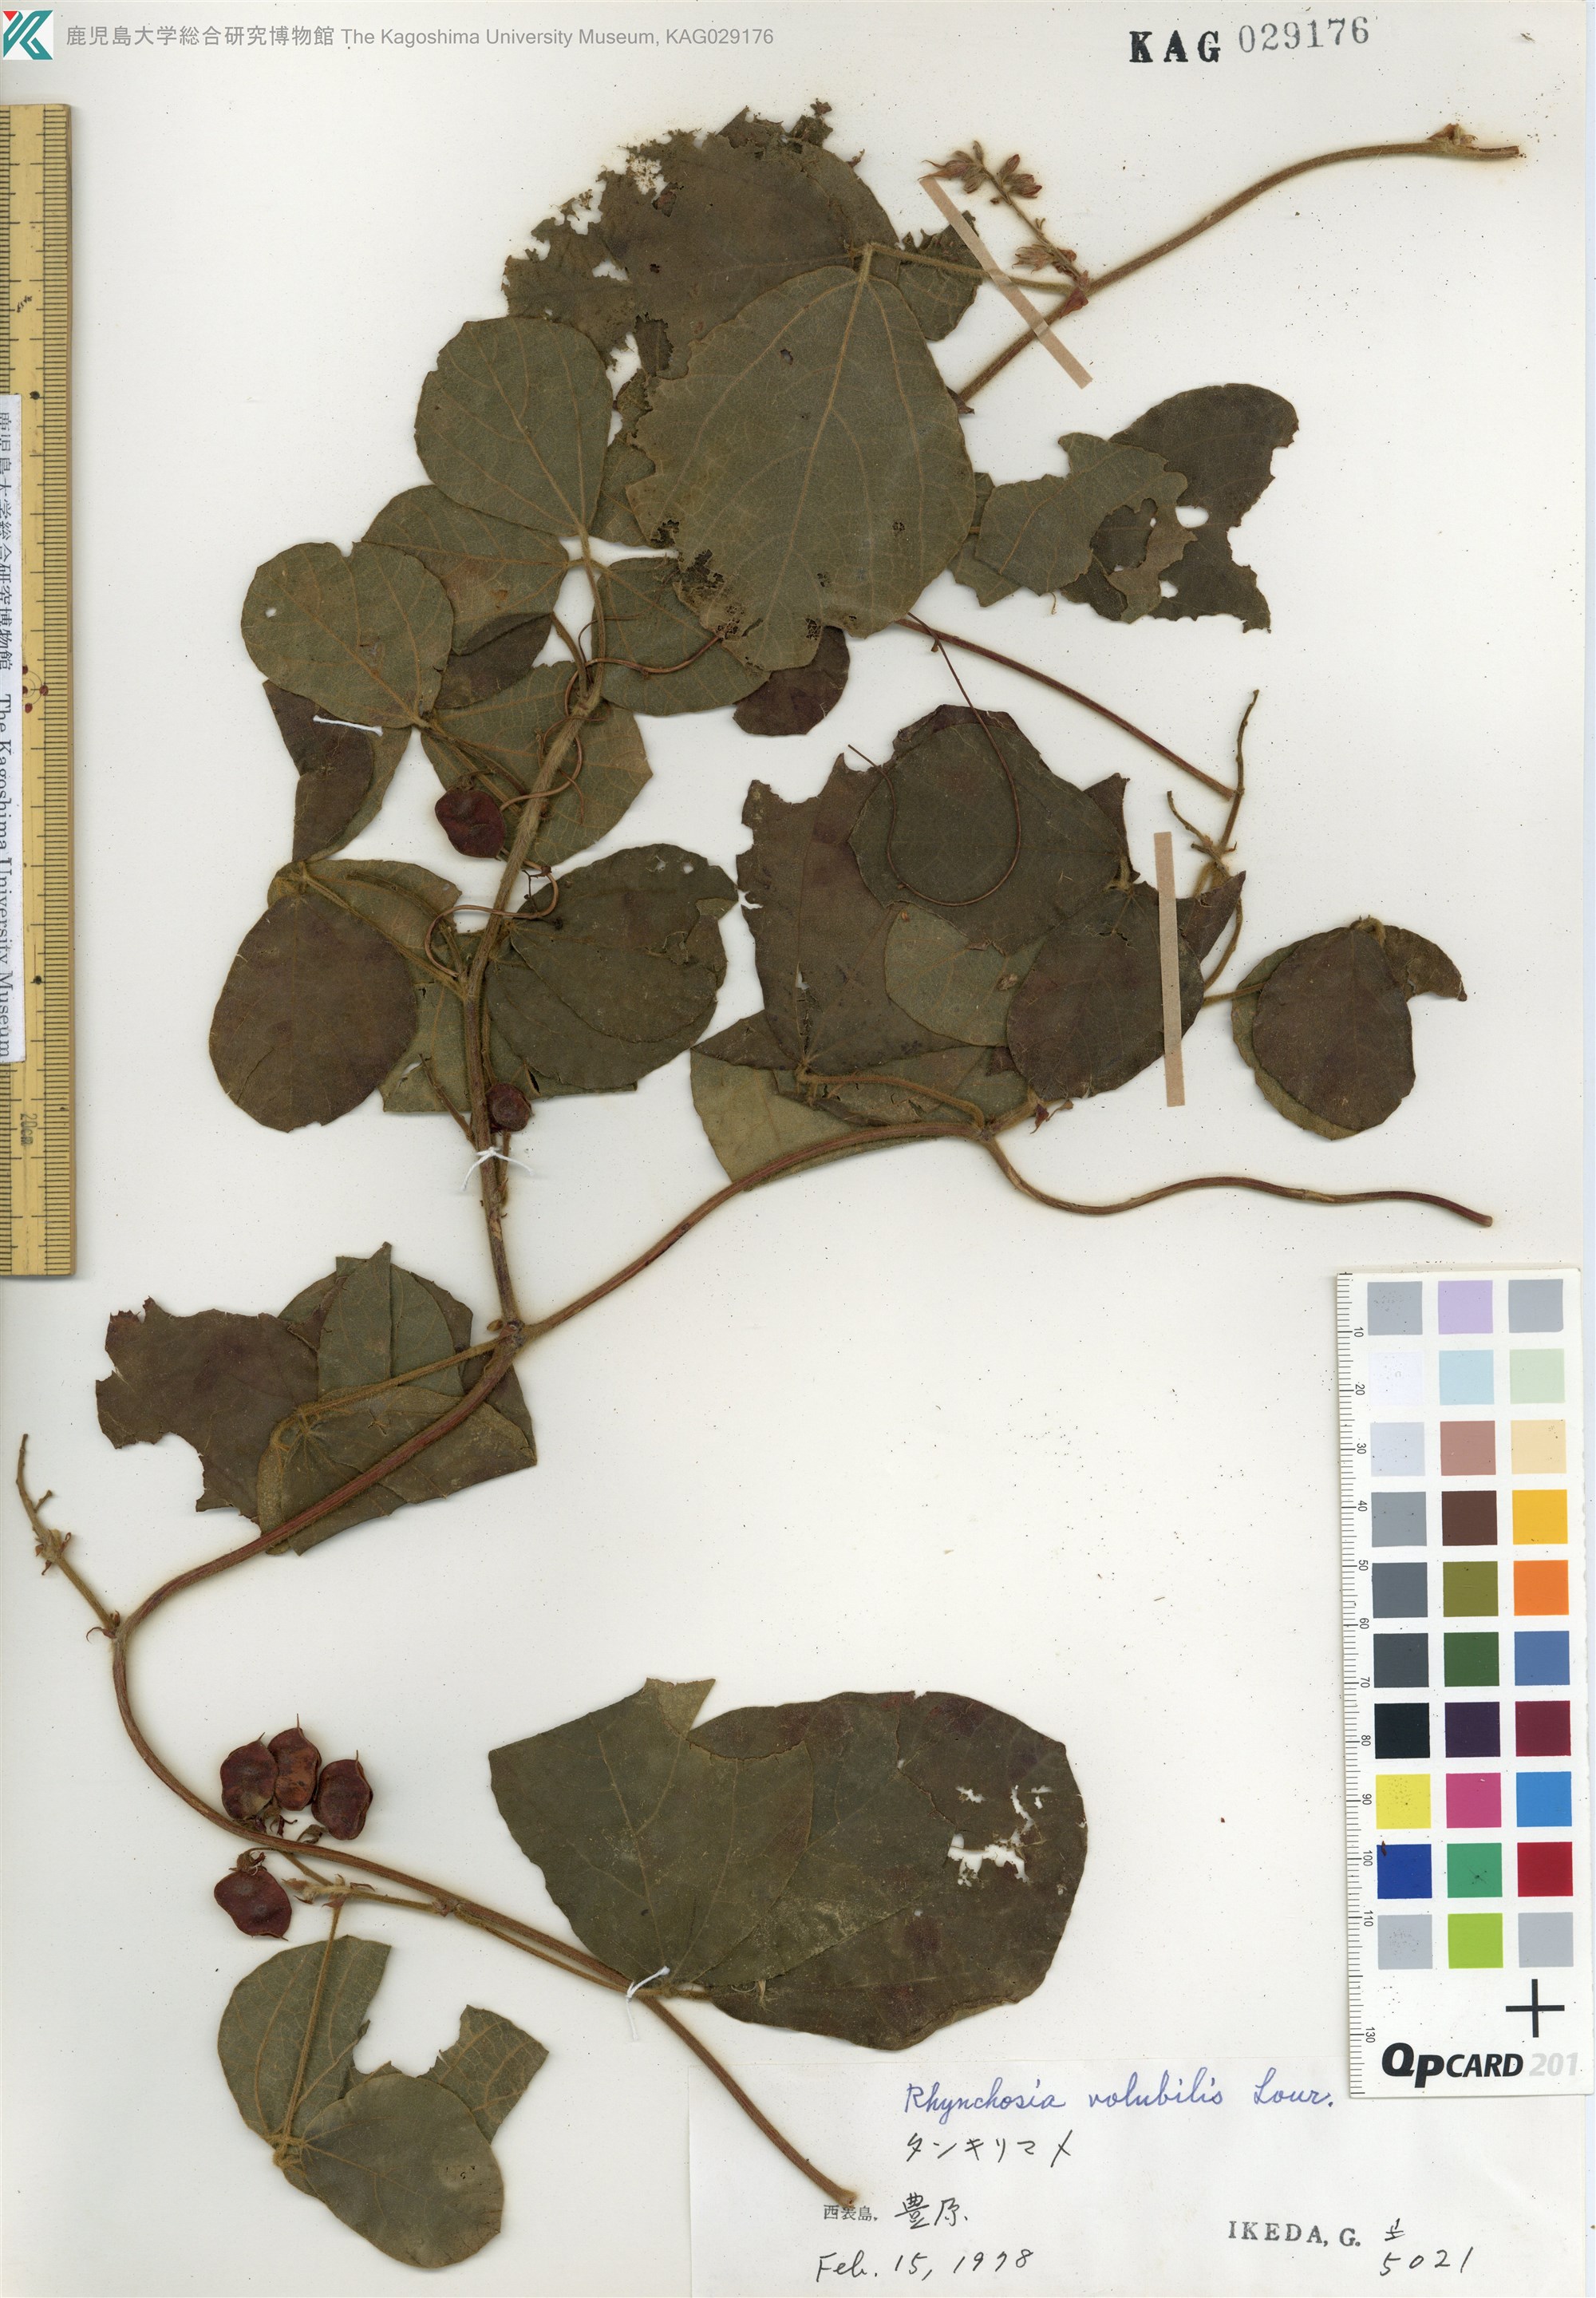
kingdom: Plantae
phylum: Tracheophyta
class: Magnoliopsida
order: Fabales
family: Fabaceae
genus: Rhynchosia
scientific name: Rhynchosia volubilis
